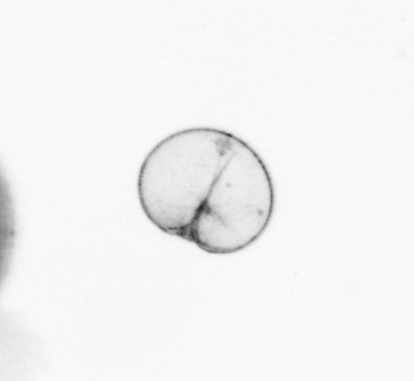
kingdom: Chromista
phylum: Myzozoa
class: Dinophyceae
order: Noctilucales
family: Noctilucaceae
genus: Noctiluca
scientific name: Noctiluca scintillans
